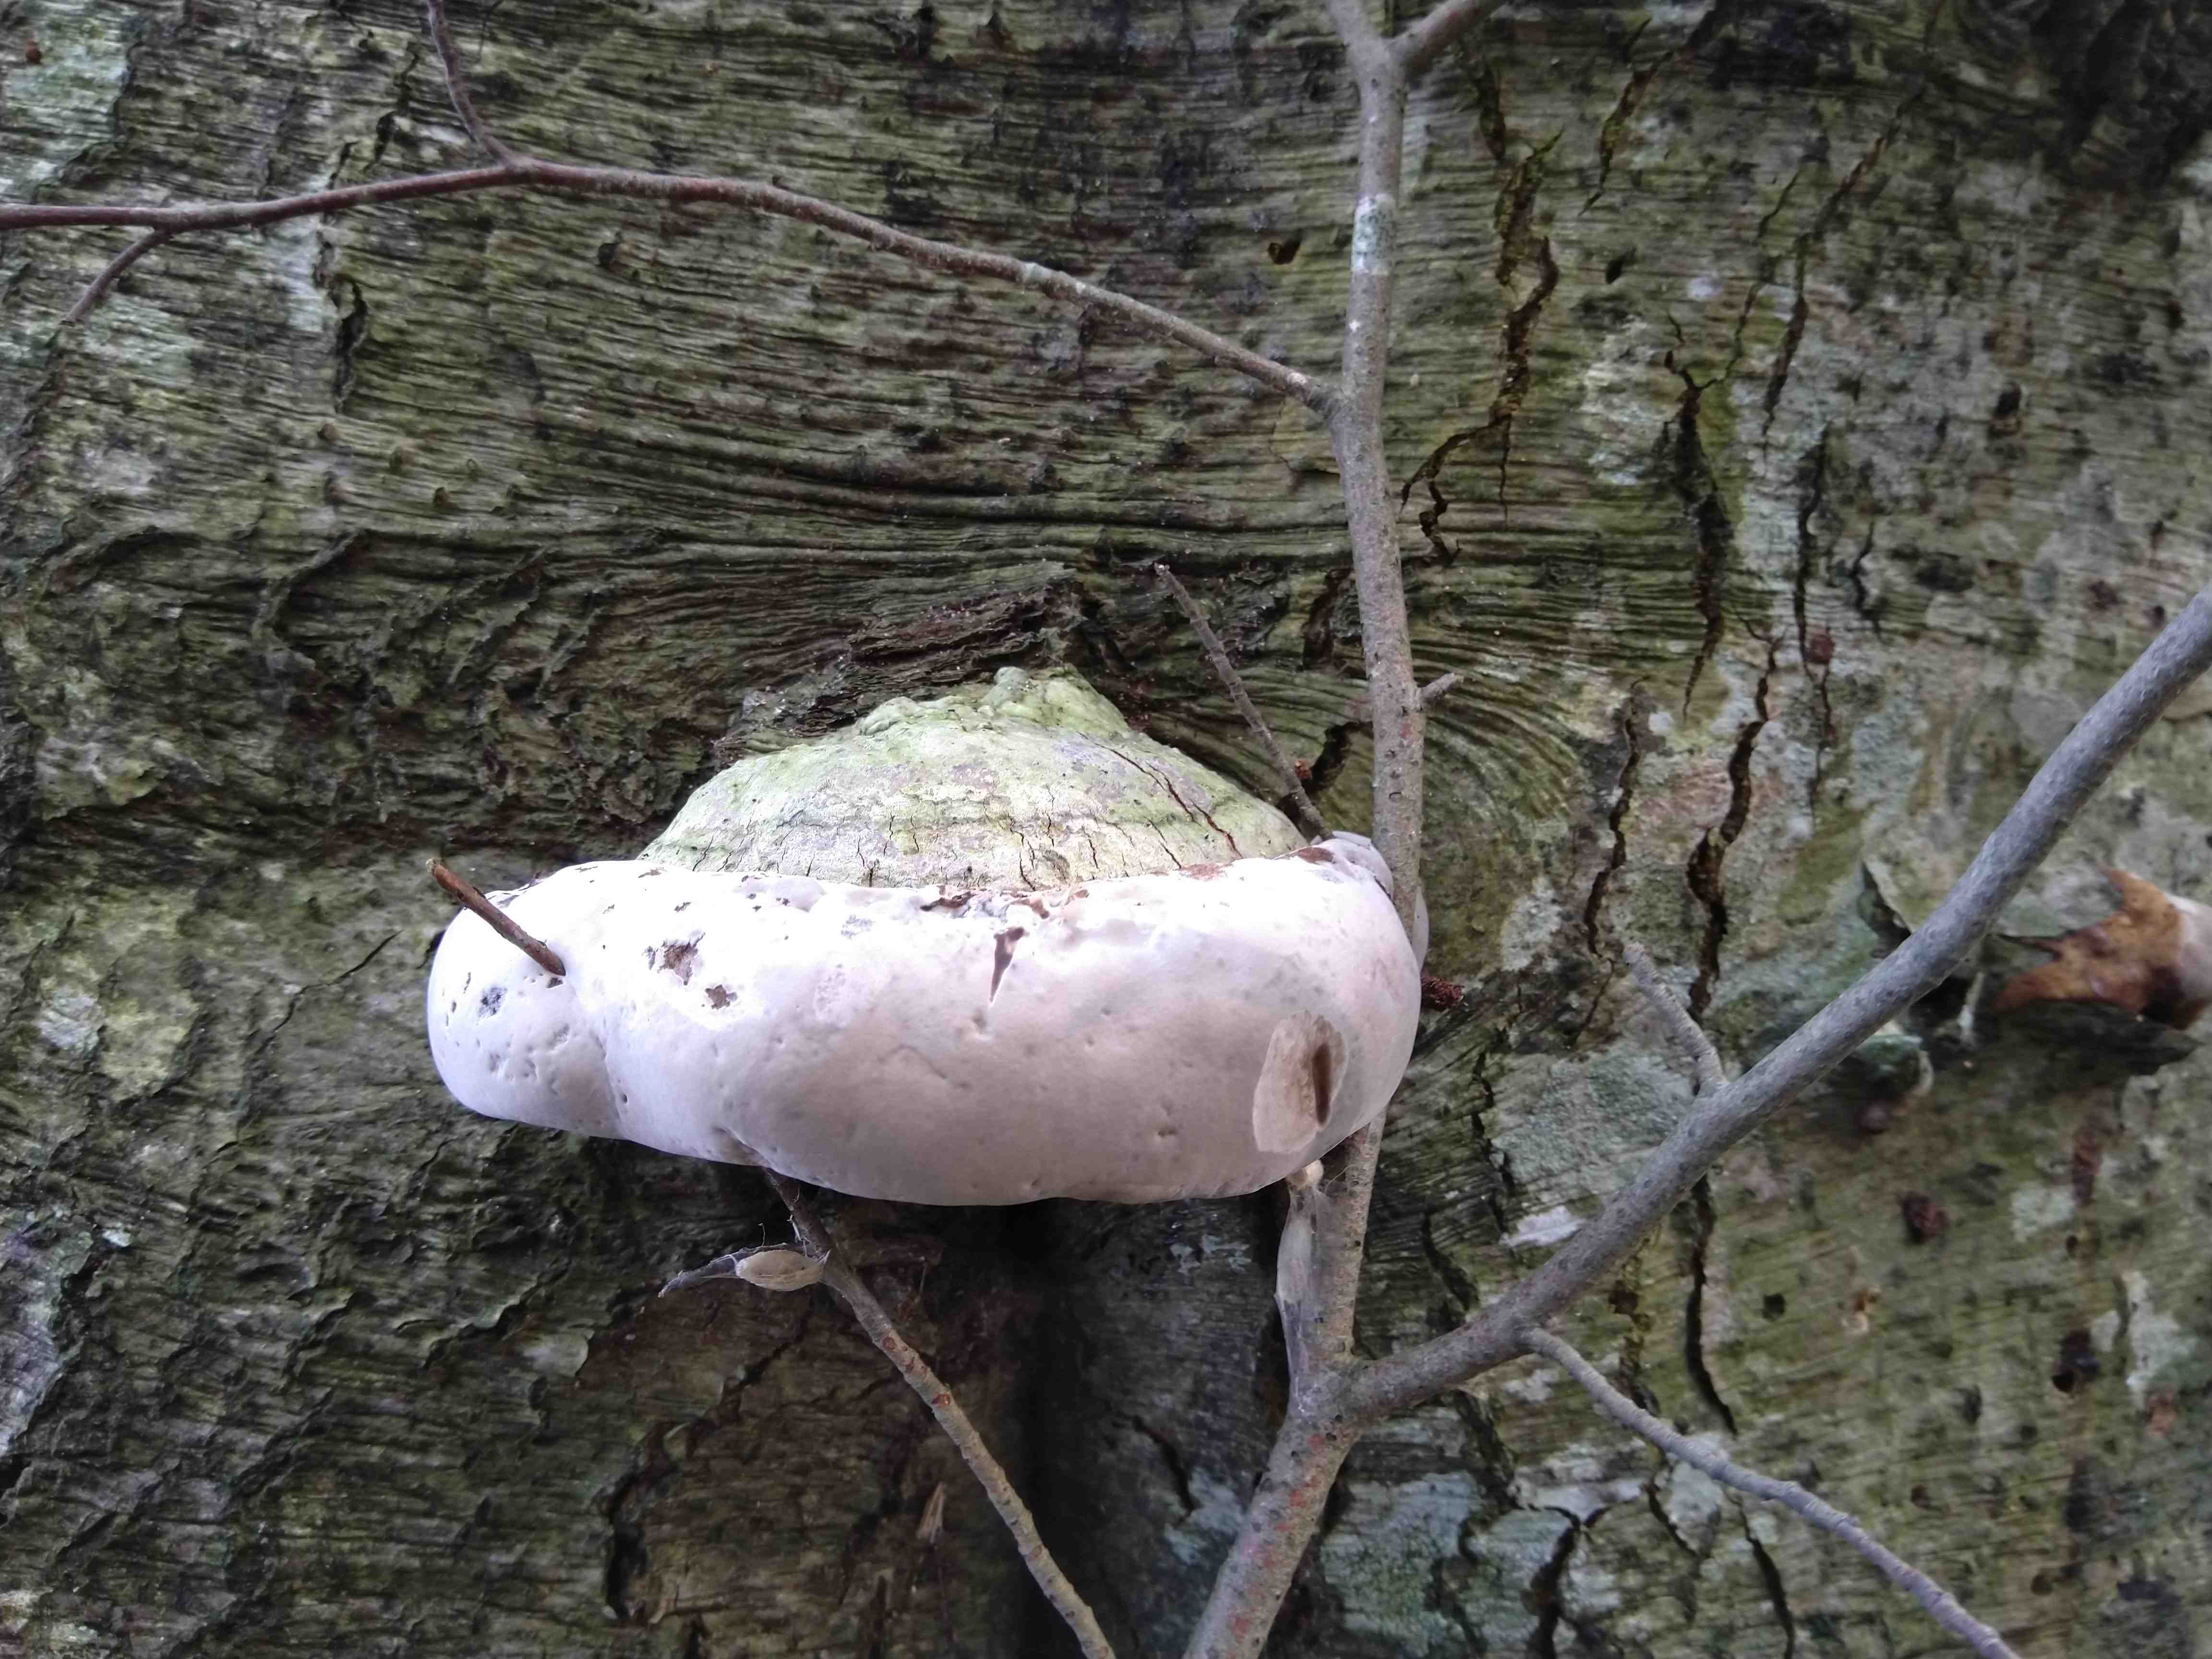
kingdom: Fungi
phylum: Basidiomycota
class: Agaricomycetes
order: Polyporales
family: Polyporaceae
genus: Fomes
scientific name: Fomes fomentarius
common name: tøndersvamp
